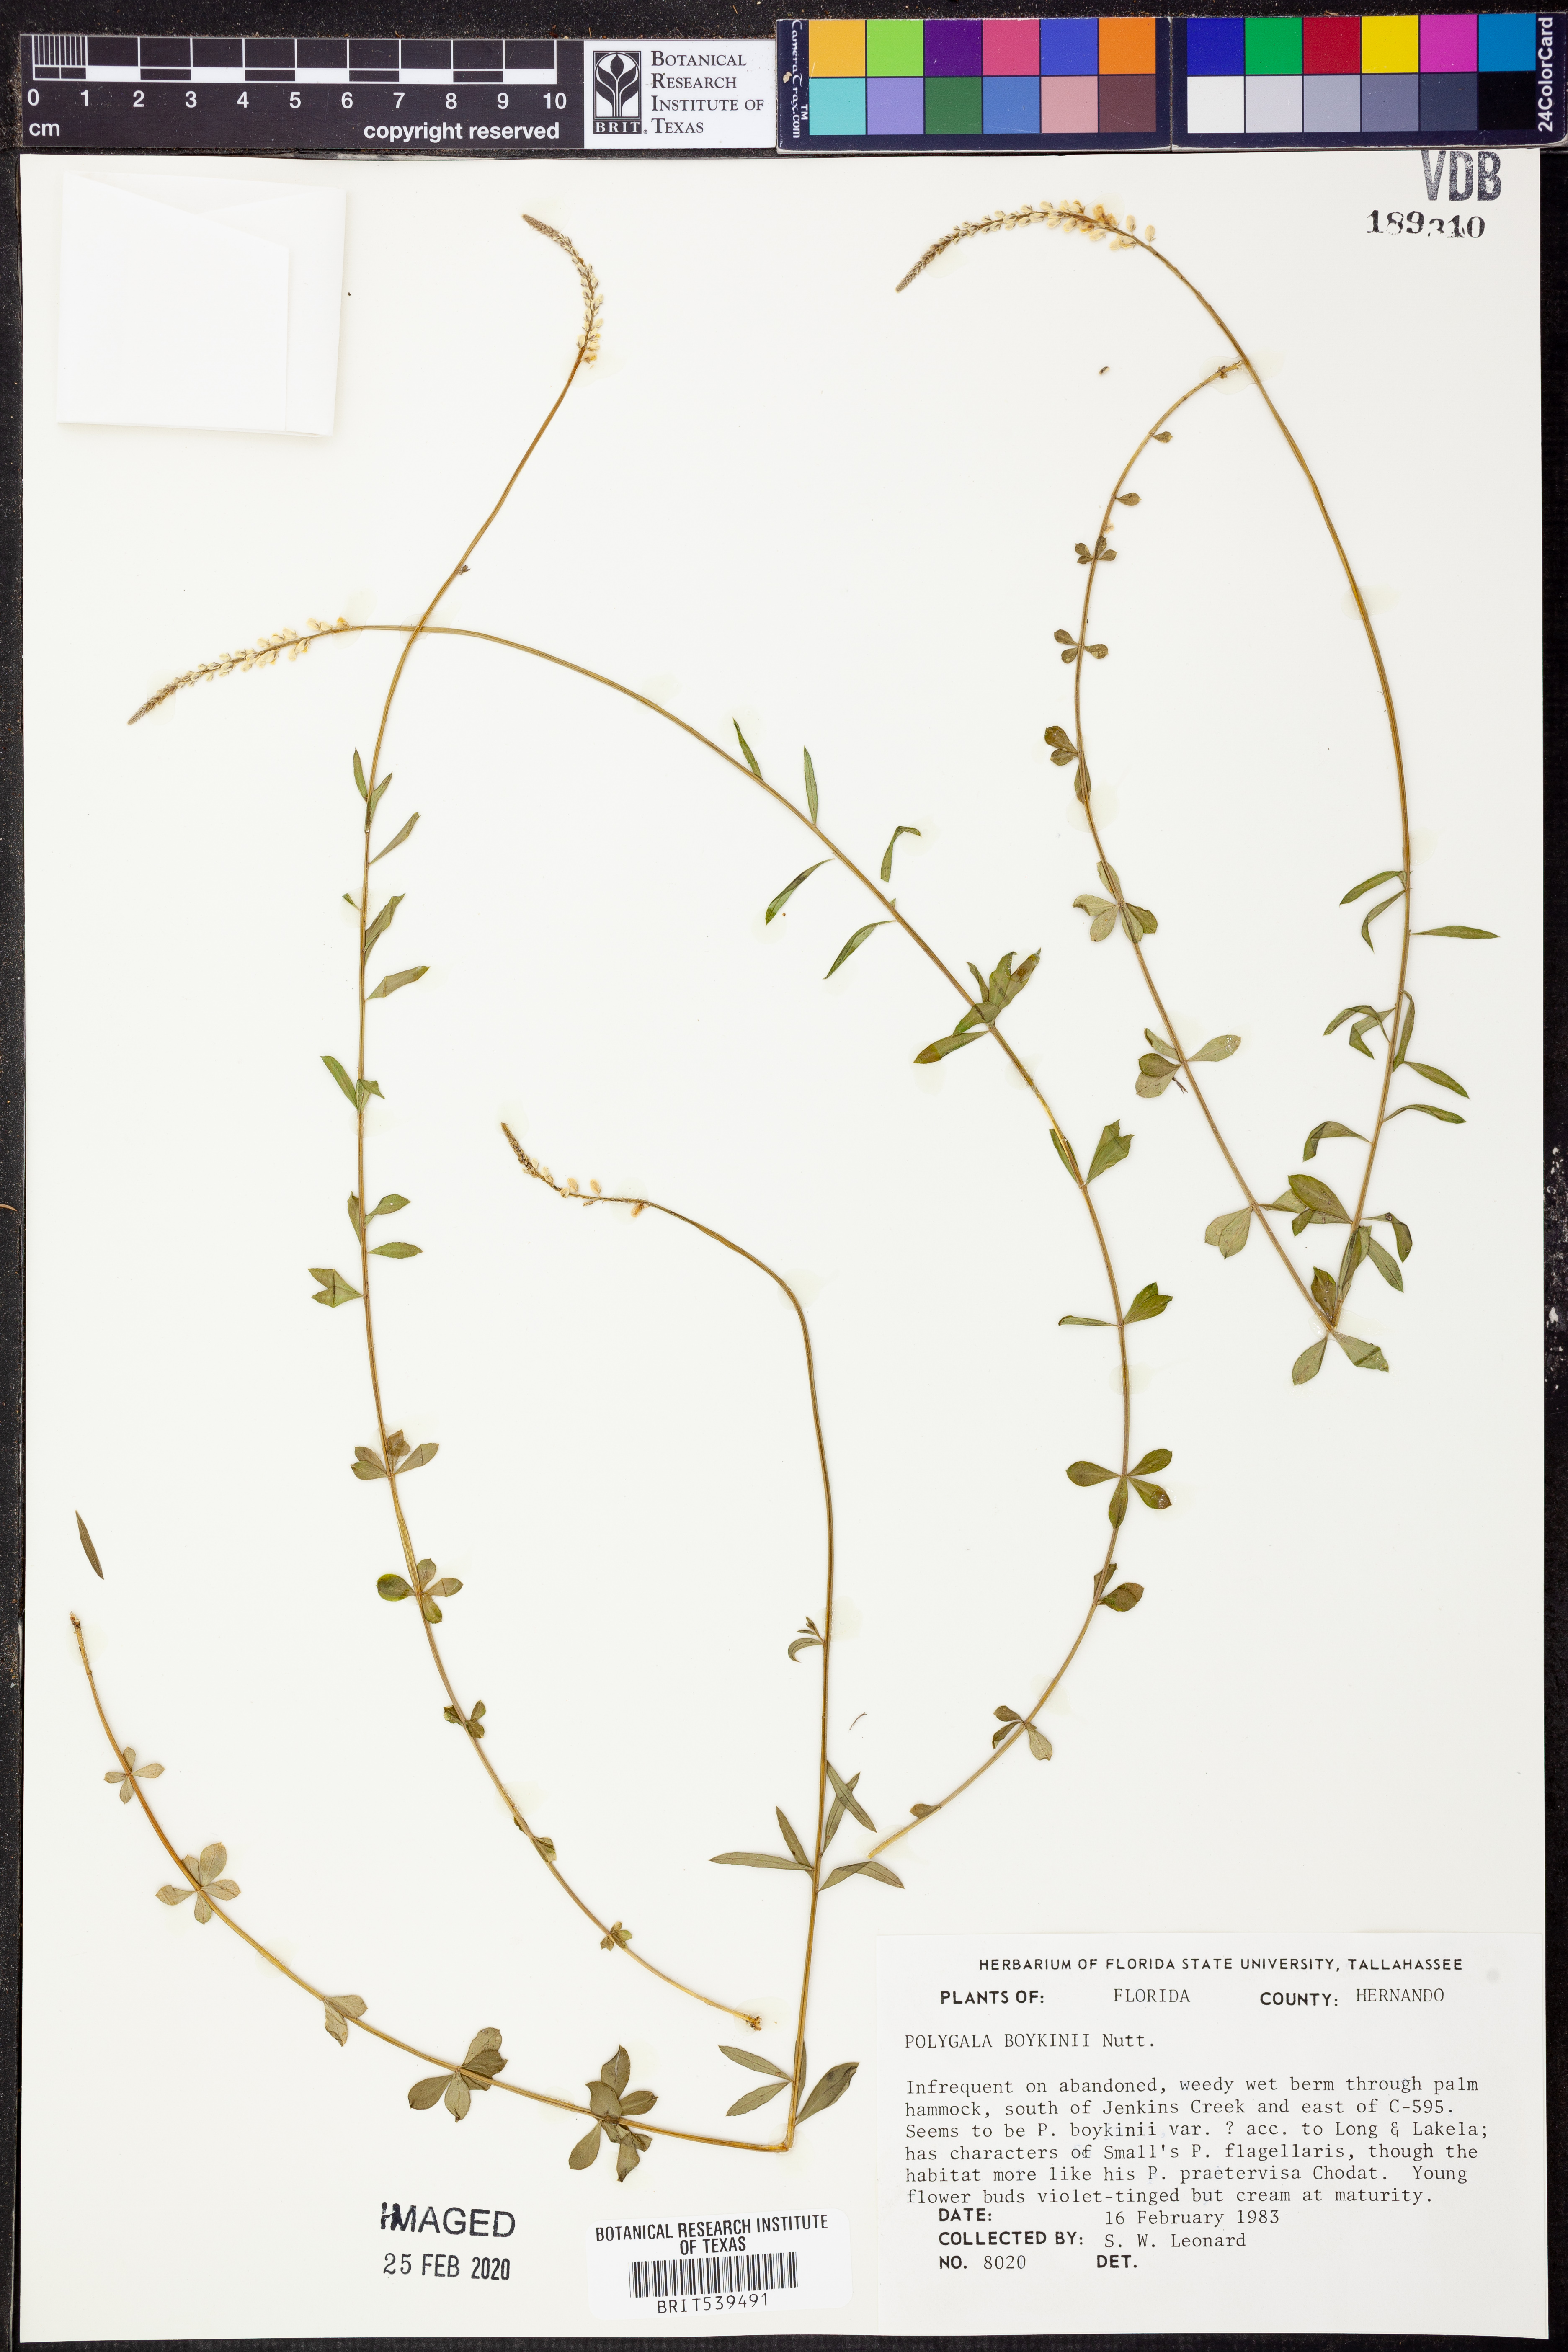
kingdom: Plantae
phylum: Tracheophyta
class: Magnoliopsida
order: Fabales
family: Polygalaceae
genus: Polygala
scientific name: Polygala boykinii
